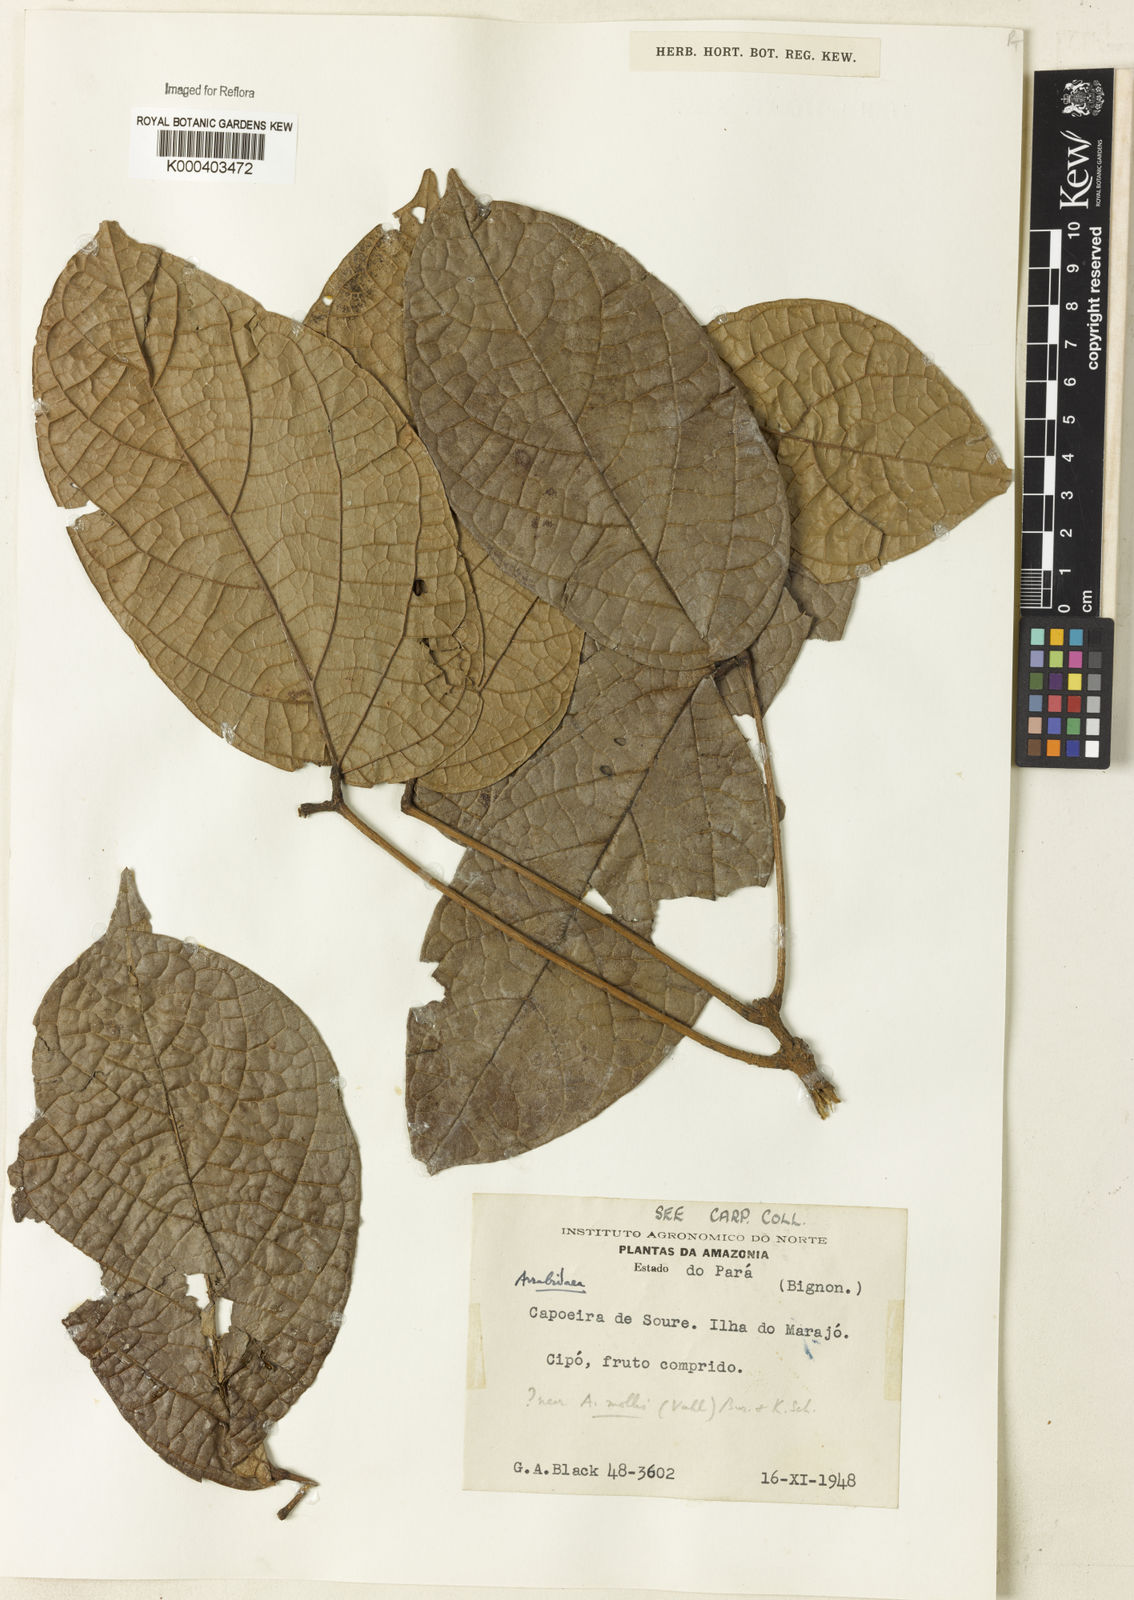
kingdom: Plantae
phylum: Tracheophyta
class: Magnoliopsida
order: Rosales
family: Rhamnaceae
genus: Arrabidaea
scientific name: Arrabidaea
